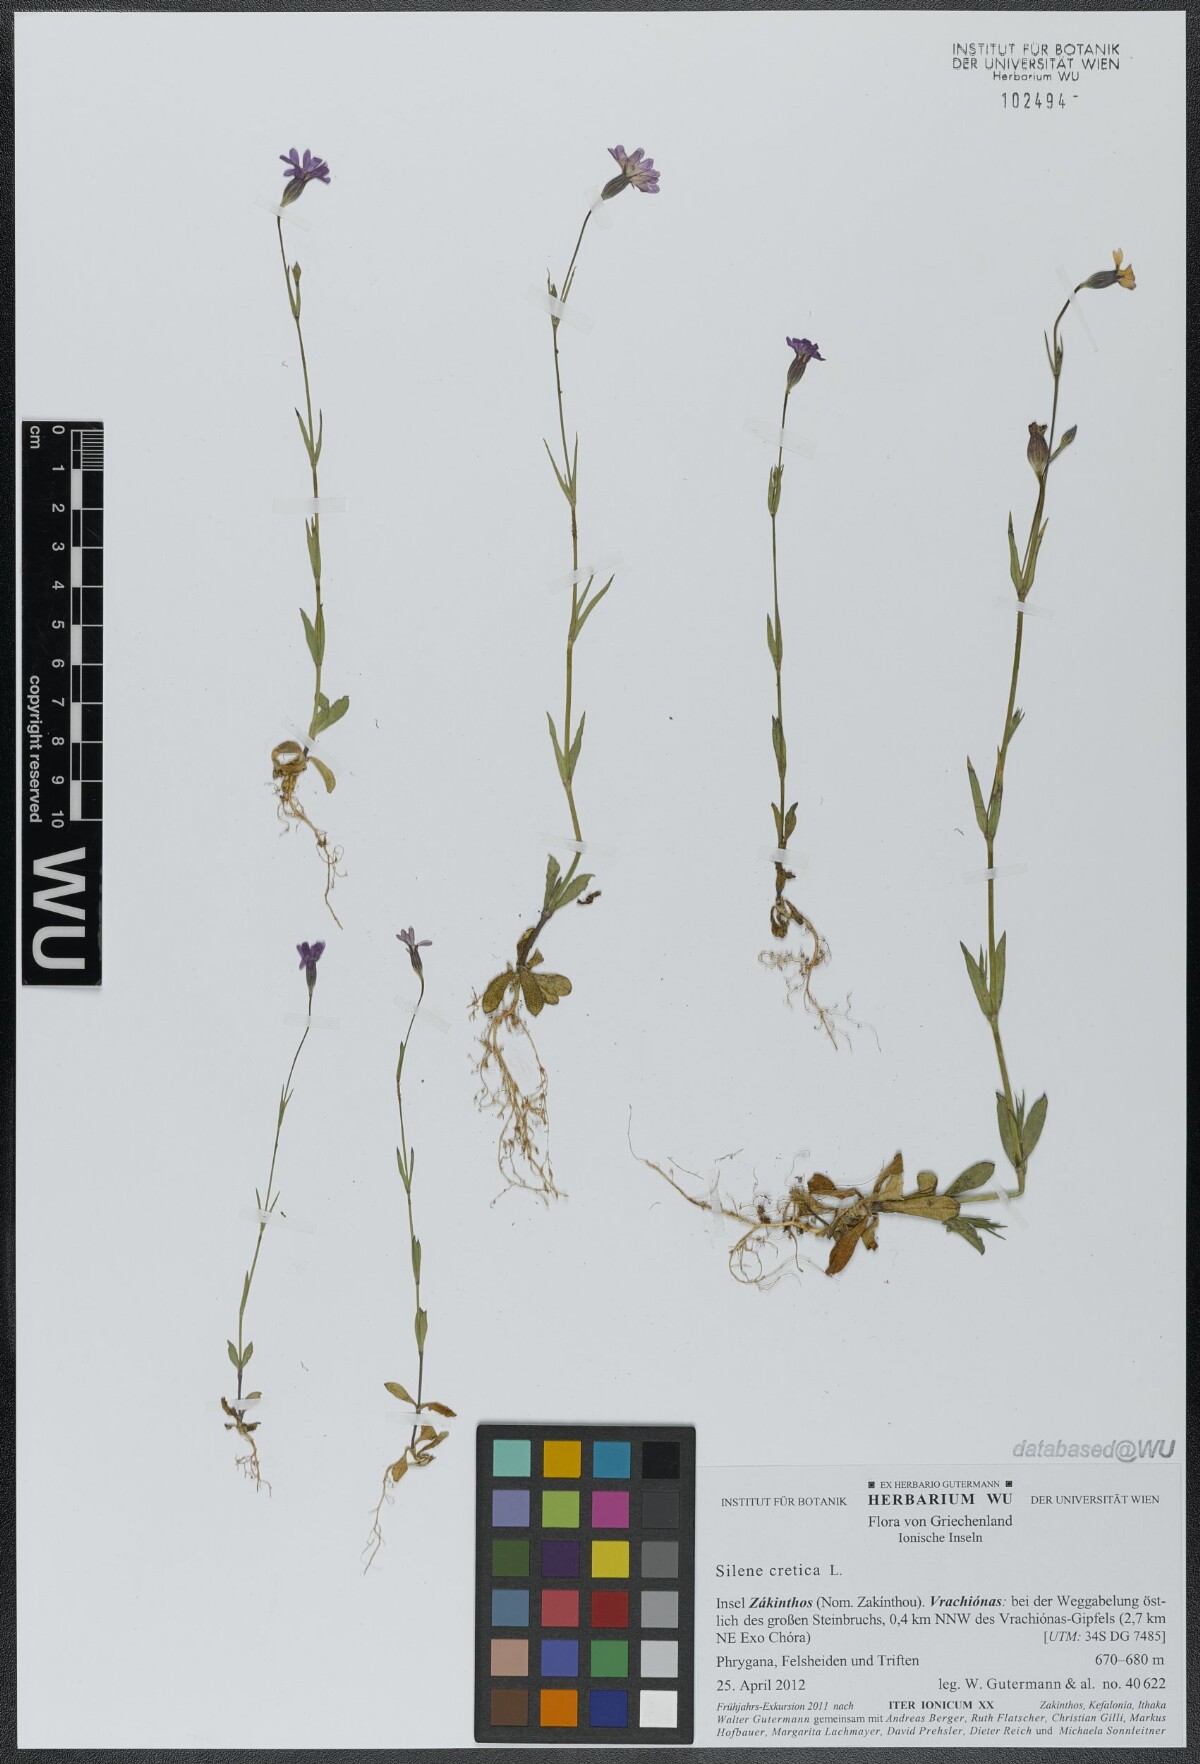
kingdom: Plantae
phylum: Tracheophyta
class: Magnoliopsida
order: Caryophyllales
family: Caryophyllaceae
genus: Silene
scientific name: Silene cretica
